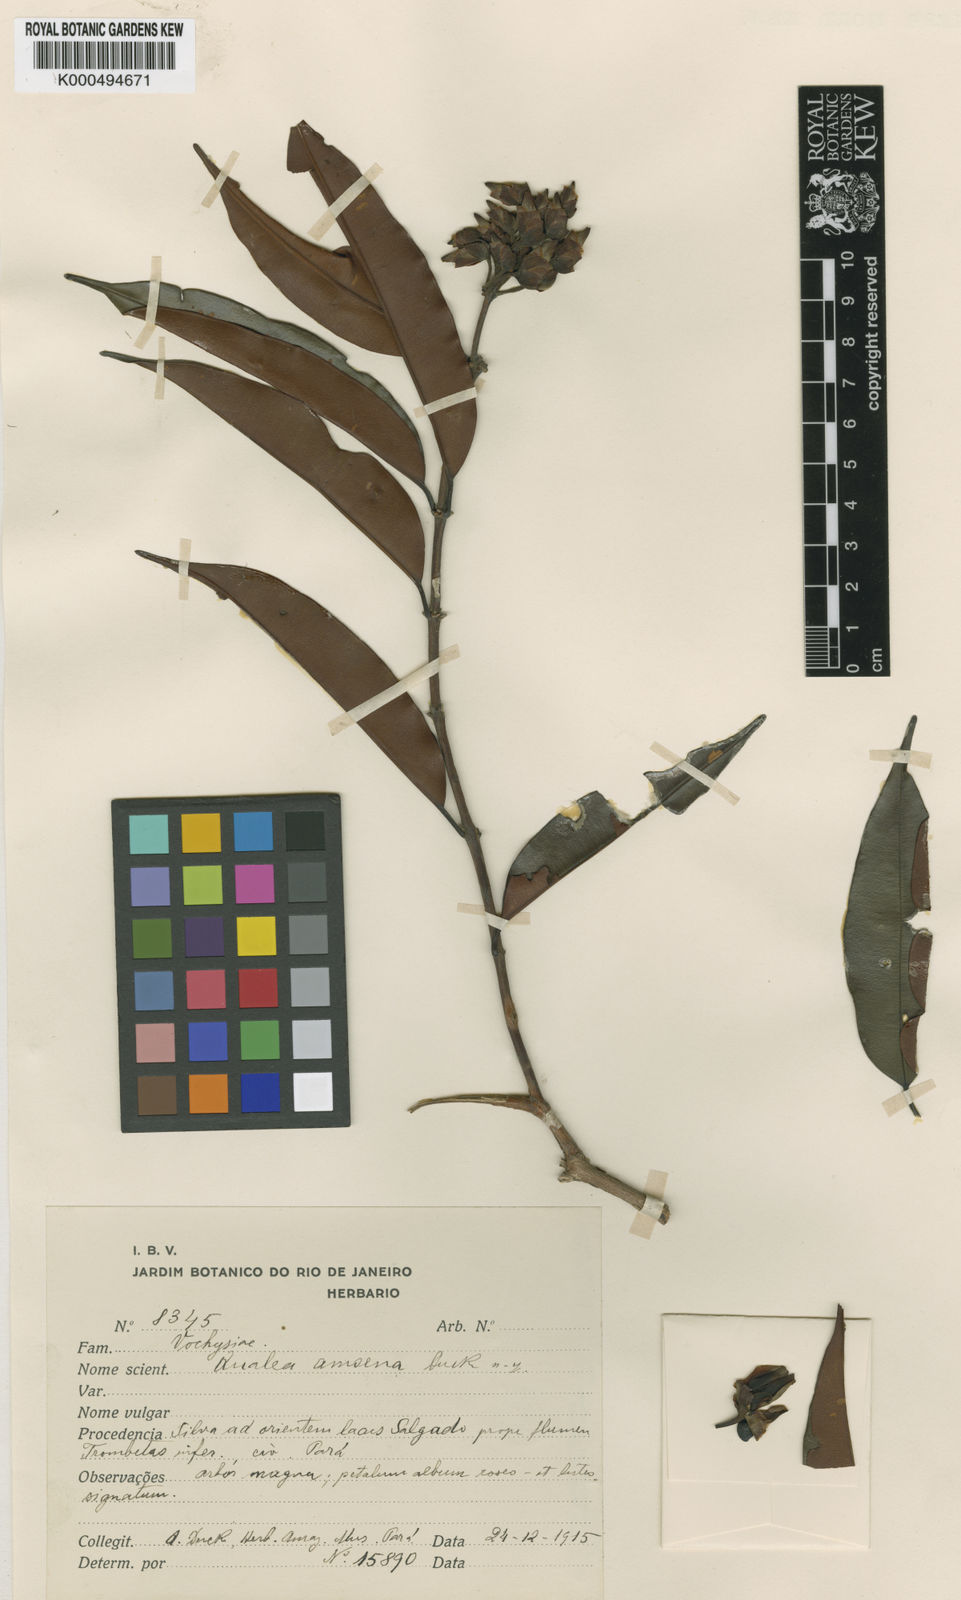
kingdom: Plantae
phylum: Tracheophyta
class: Magnoliopsida
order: Myrtales
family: Vochysiaceae
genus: Qualea
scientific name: Qualea amoena
